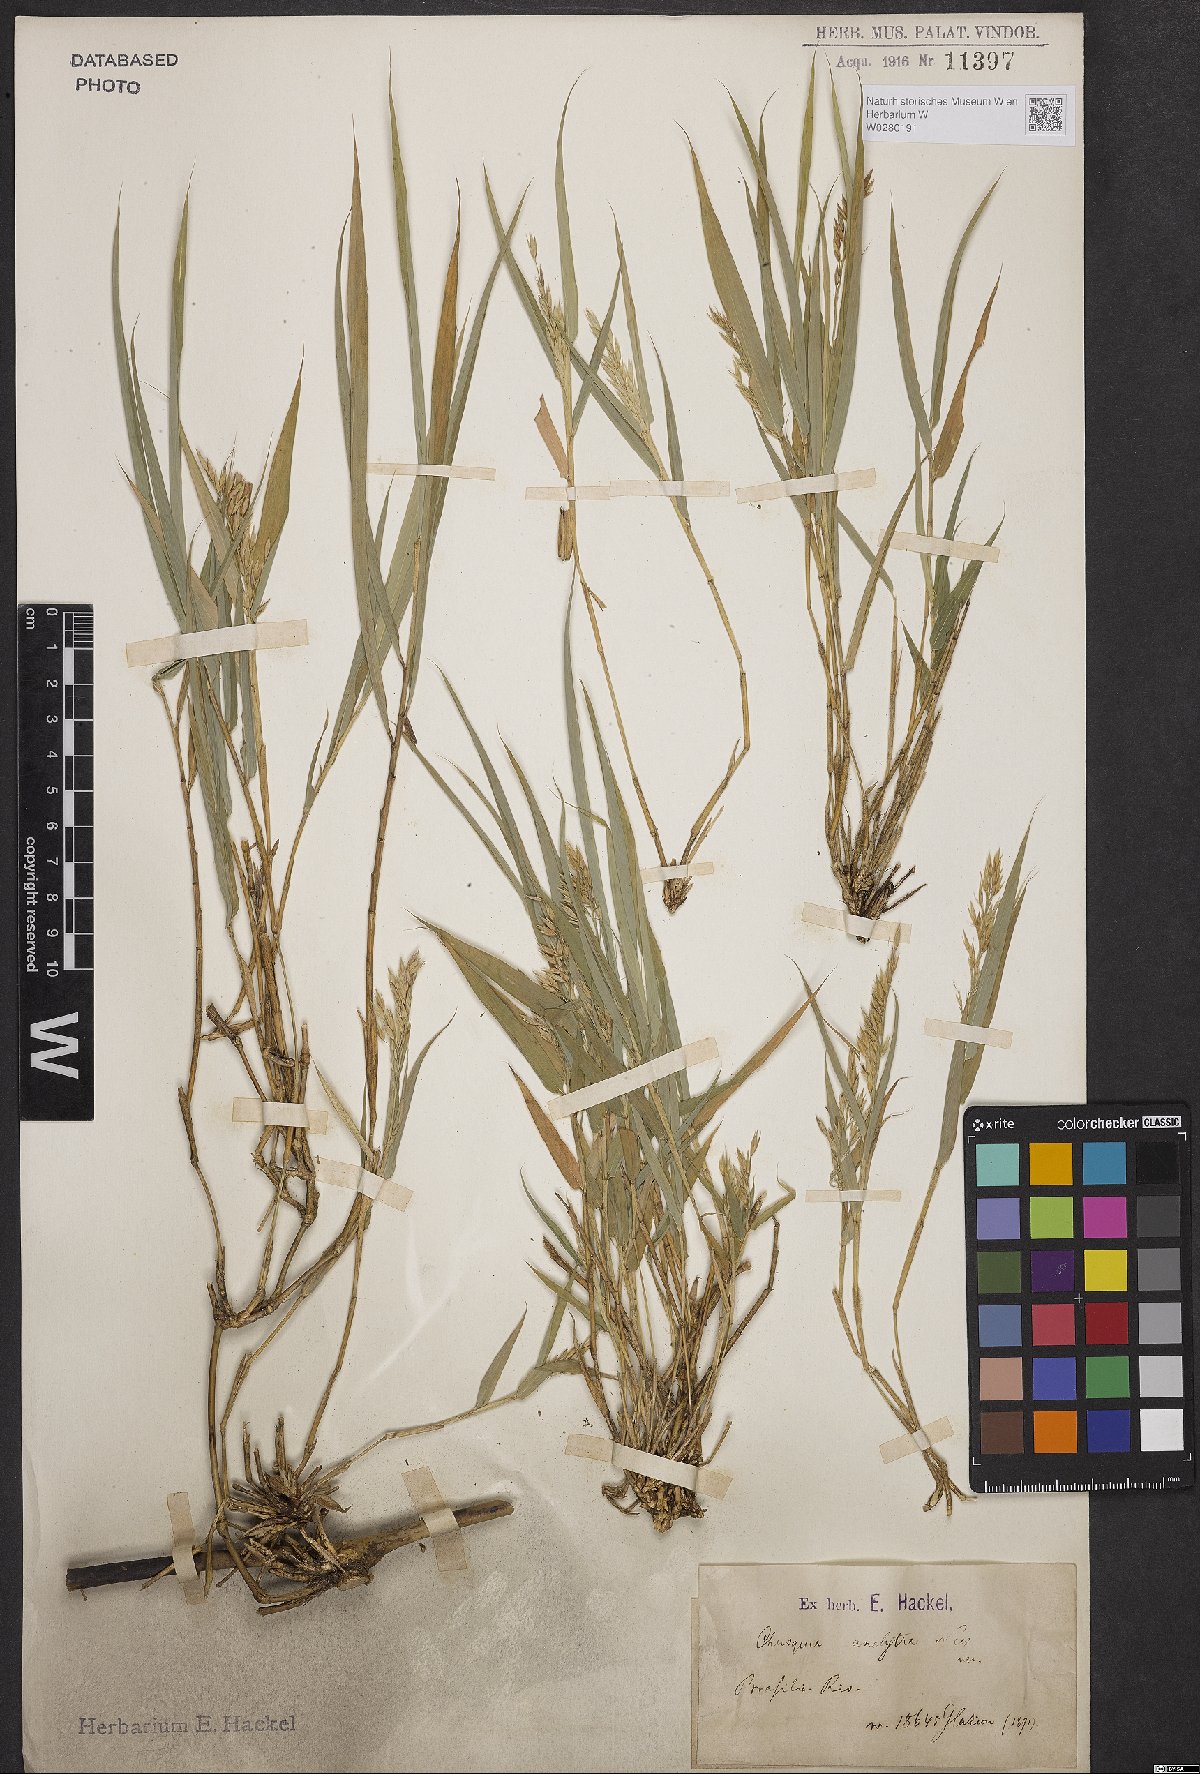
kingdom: Plantae
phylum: Tracheophyta
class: Liliopsida
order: Poales
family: Poaceae
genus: Chusquea
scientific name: Chusquea anelythra
